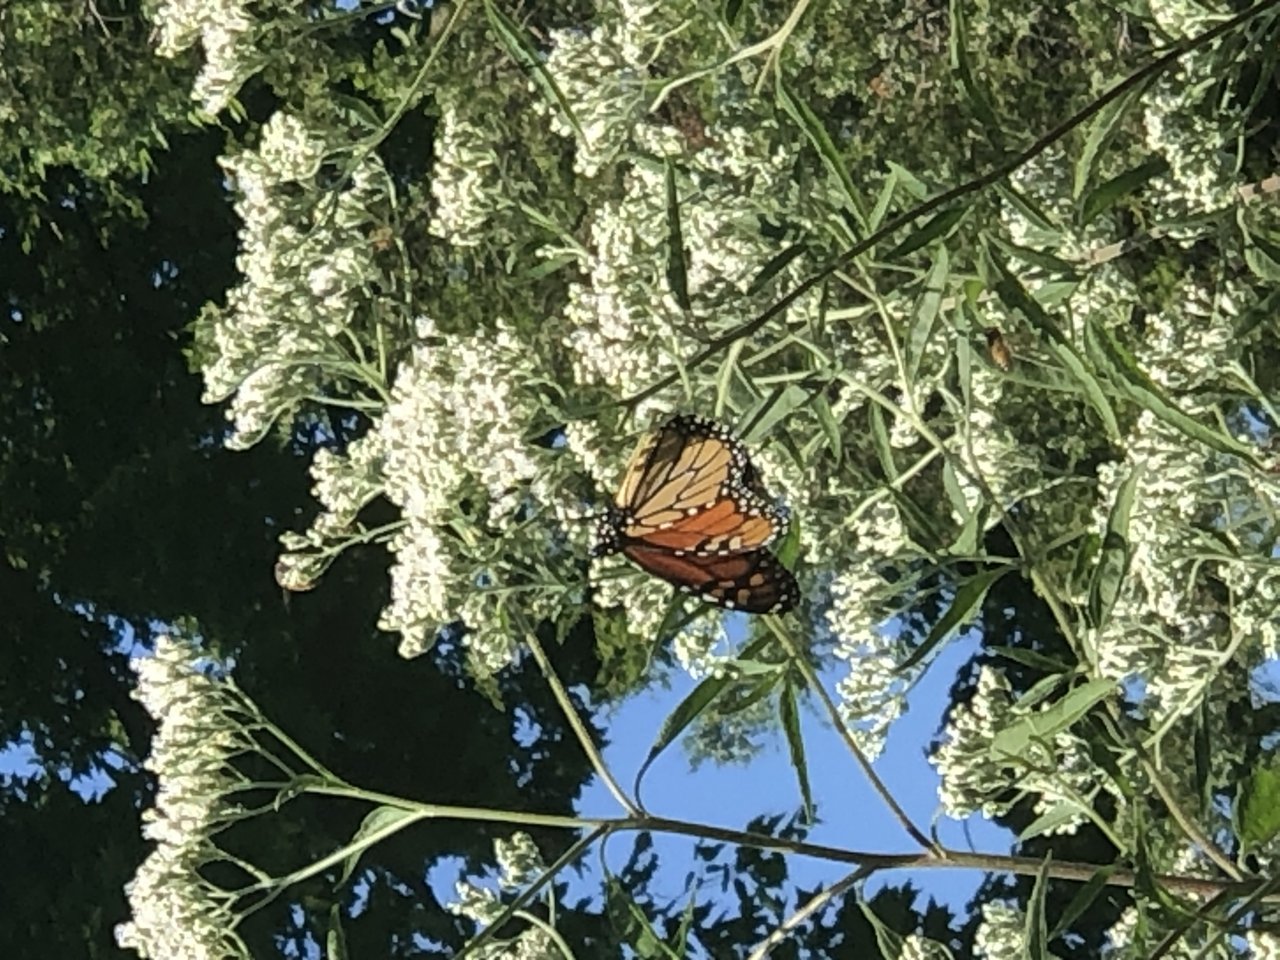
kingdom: Animalia
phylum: Arthropoda
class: Insecta
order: Lepidoptera
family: Nymphalidae
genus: Danaus
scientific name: Danaus plexippus
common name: Monarch
